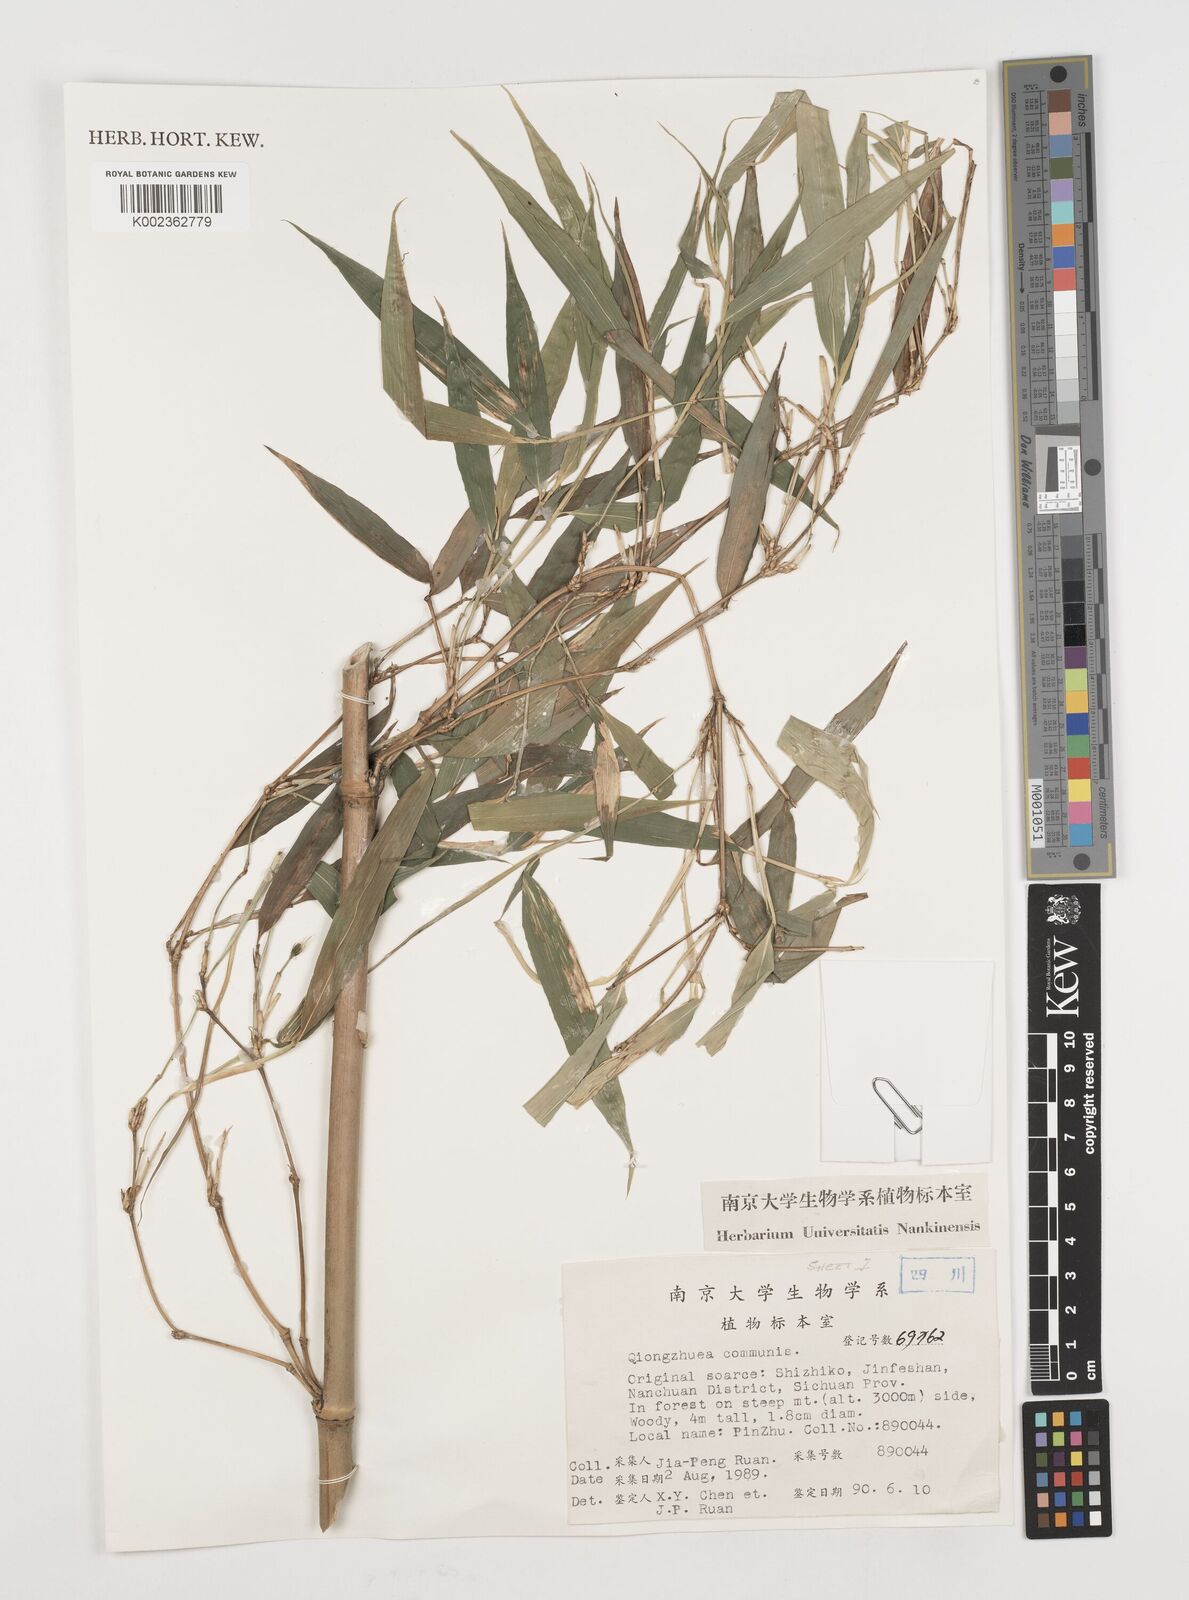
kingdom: Plantae
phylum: Tracheophyta
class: Liliopsida
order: Poales
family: Poaceae
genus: Chimonobambusa
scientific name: Chimonobambusa communis
